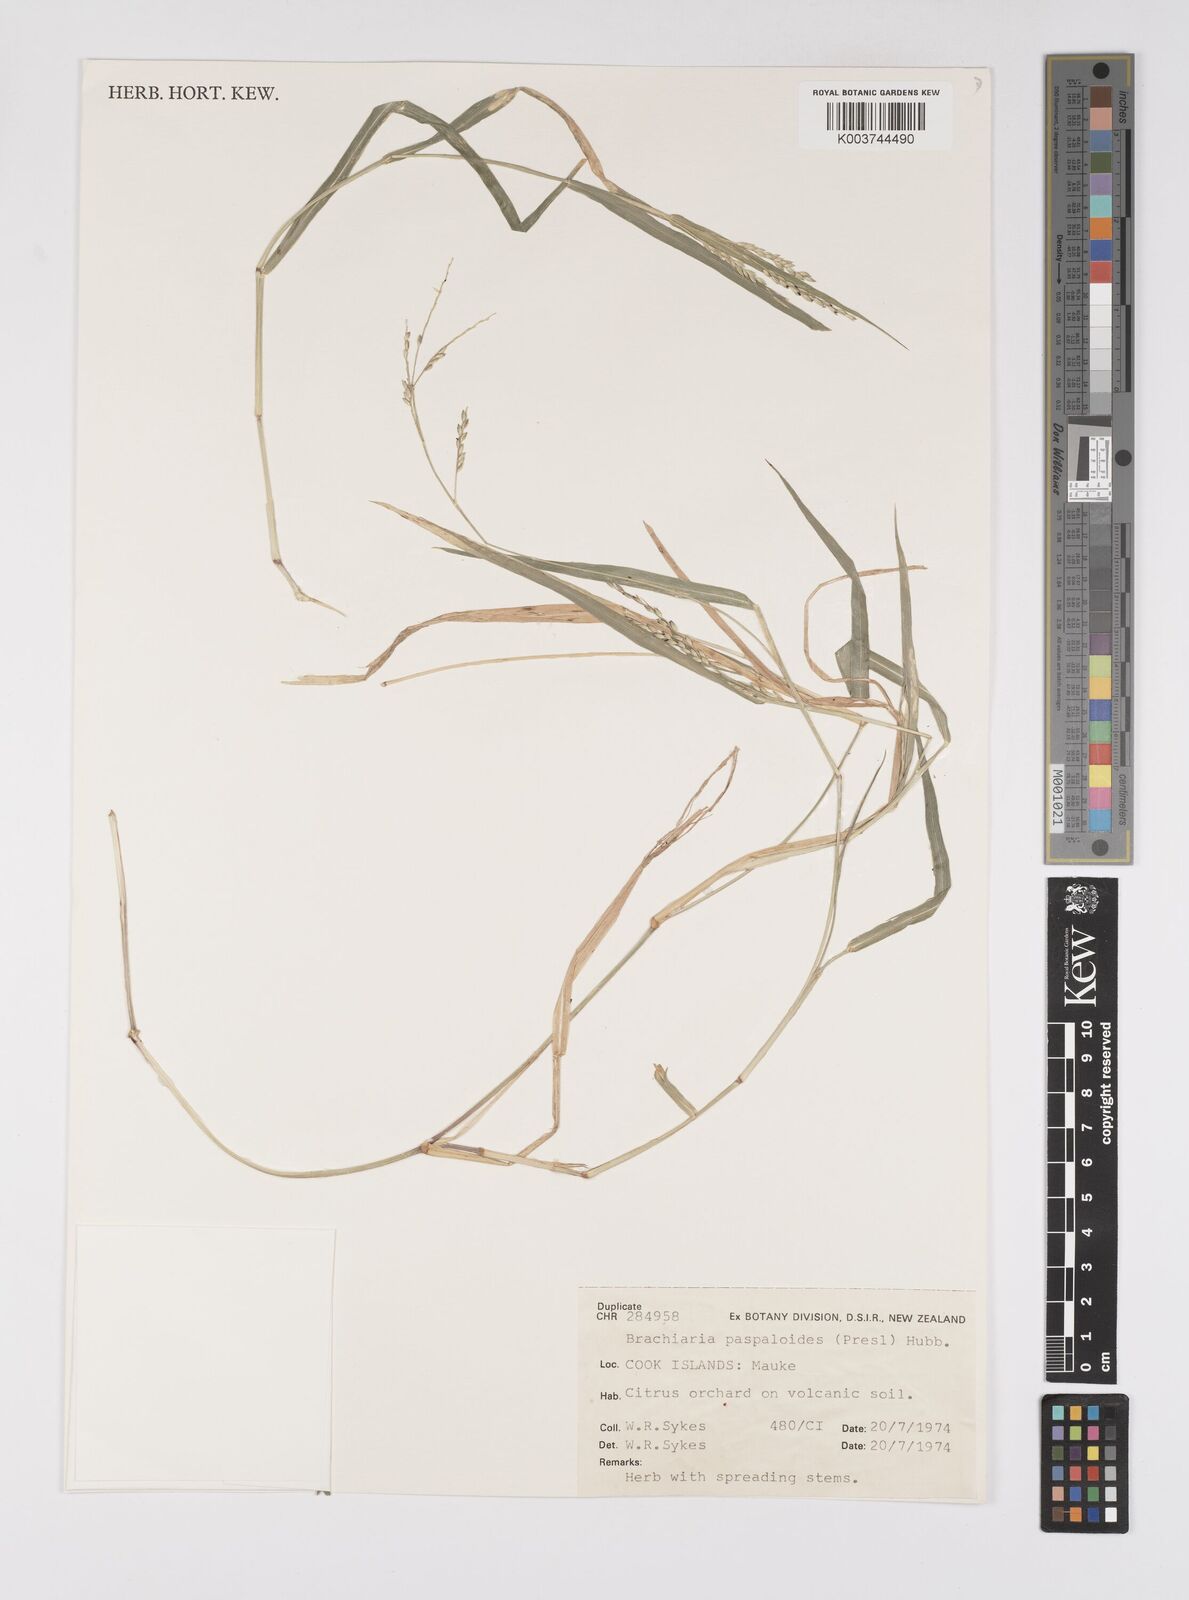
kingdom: Plantae
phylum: Tracheophyta
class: Liliopsida
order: Poales
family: Poaceae
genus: Urochloa
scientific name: Urochloa glumaris
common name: Thurston grass
